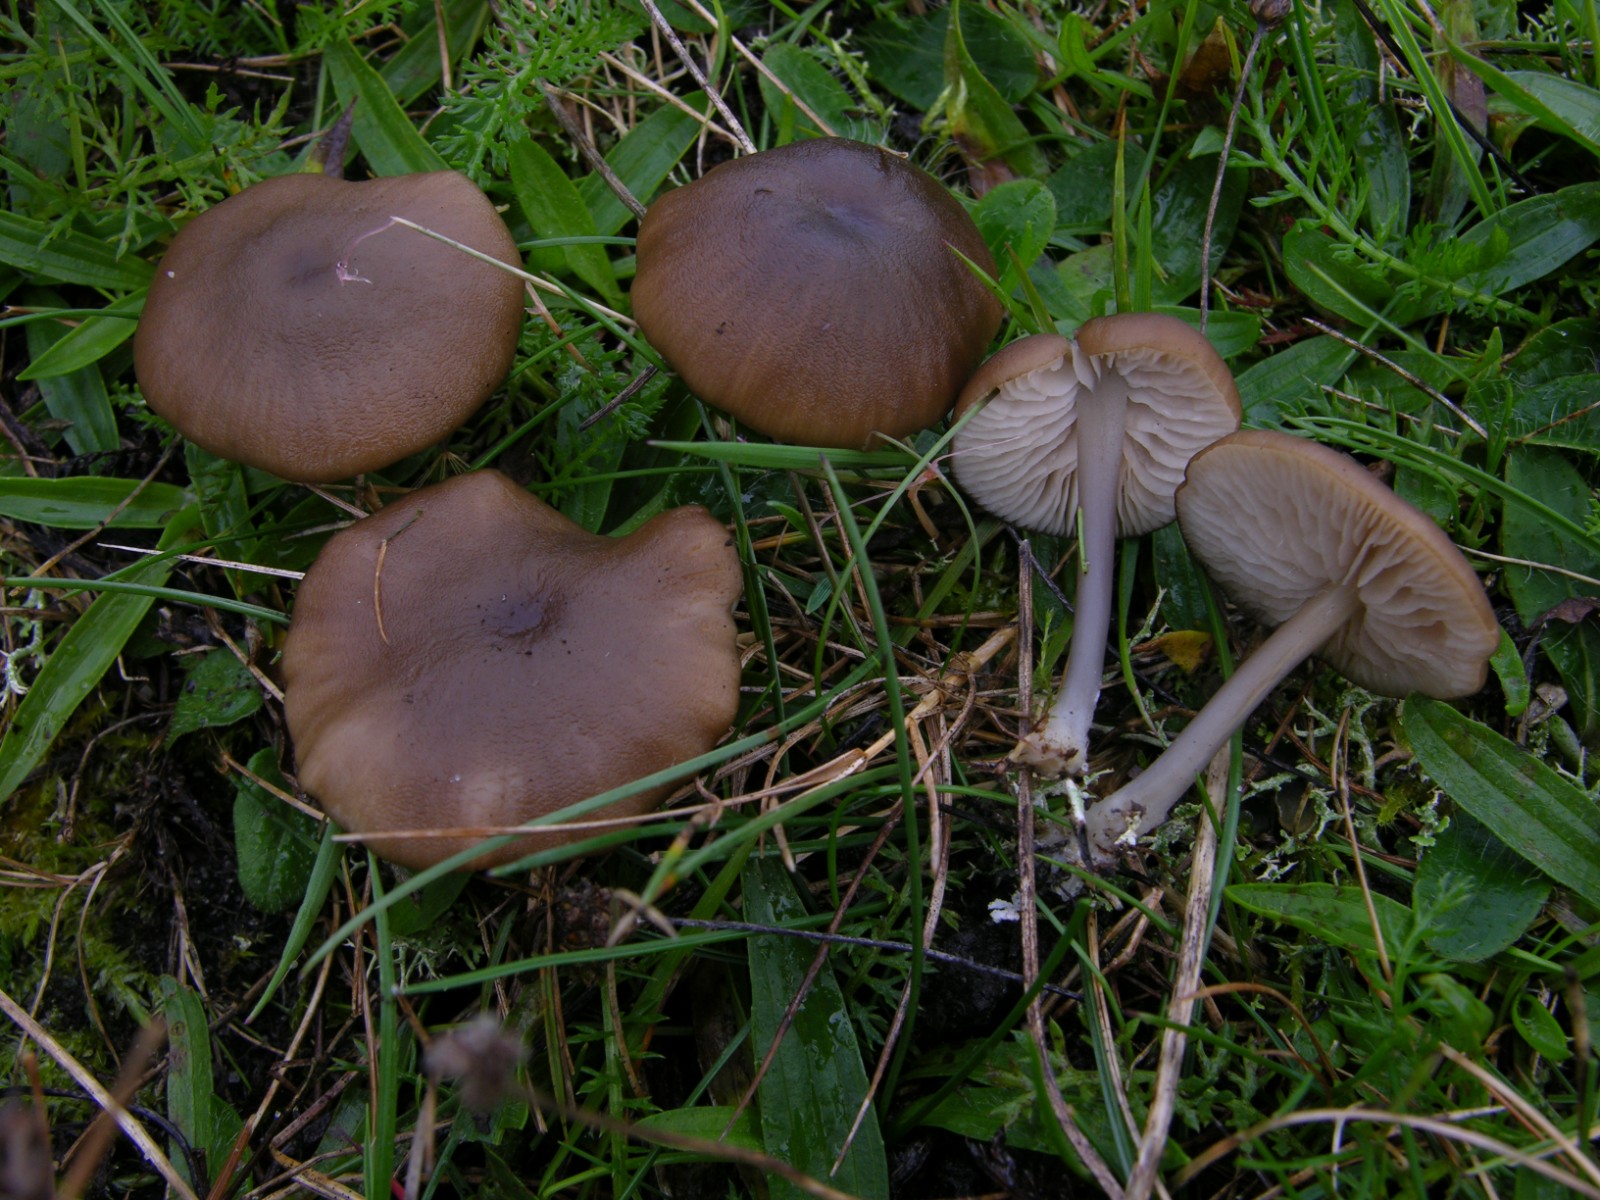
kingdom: Fungi
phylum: Basidiomycota
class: Agaricomycetes
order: Agaricales
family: Entolomataceae
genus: Entoloma
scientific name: Entoloma pseudoturci
